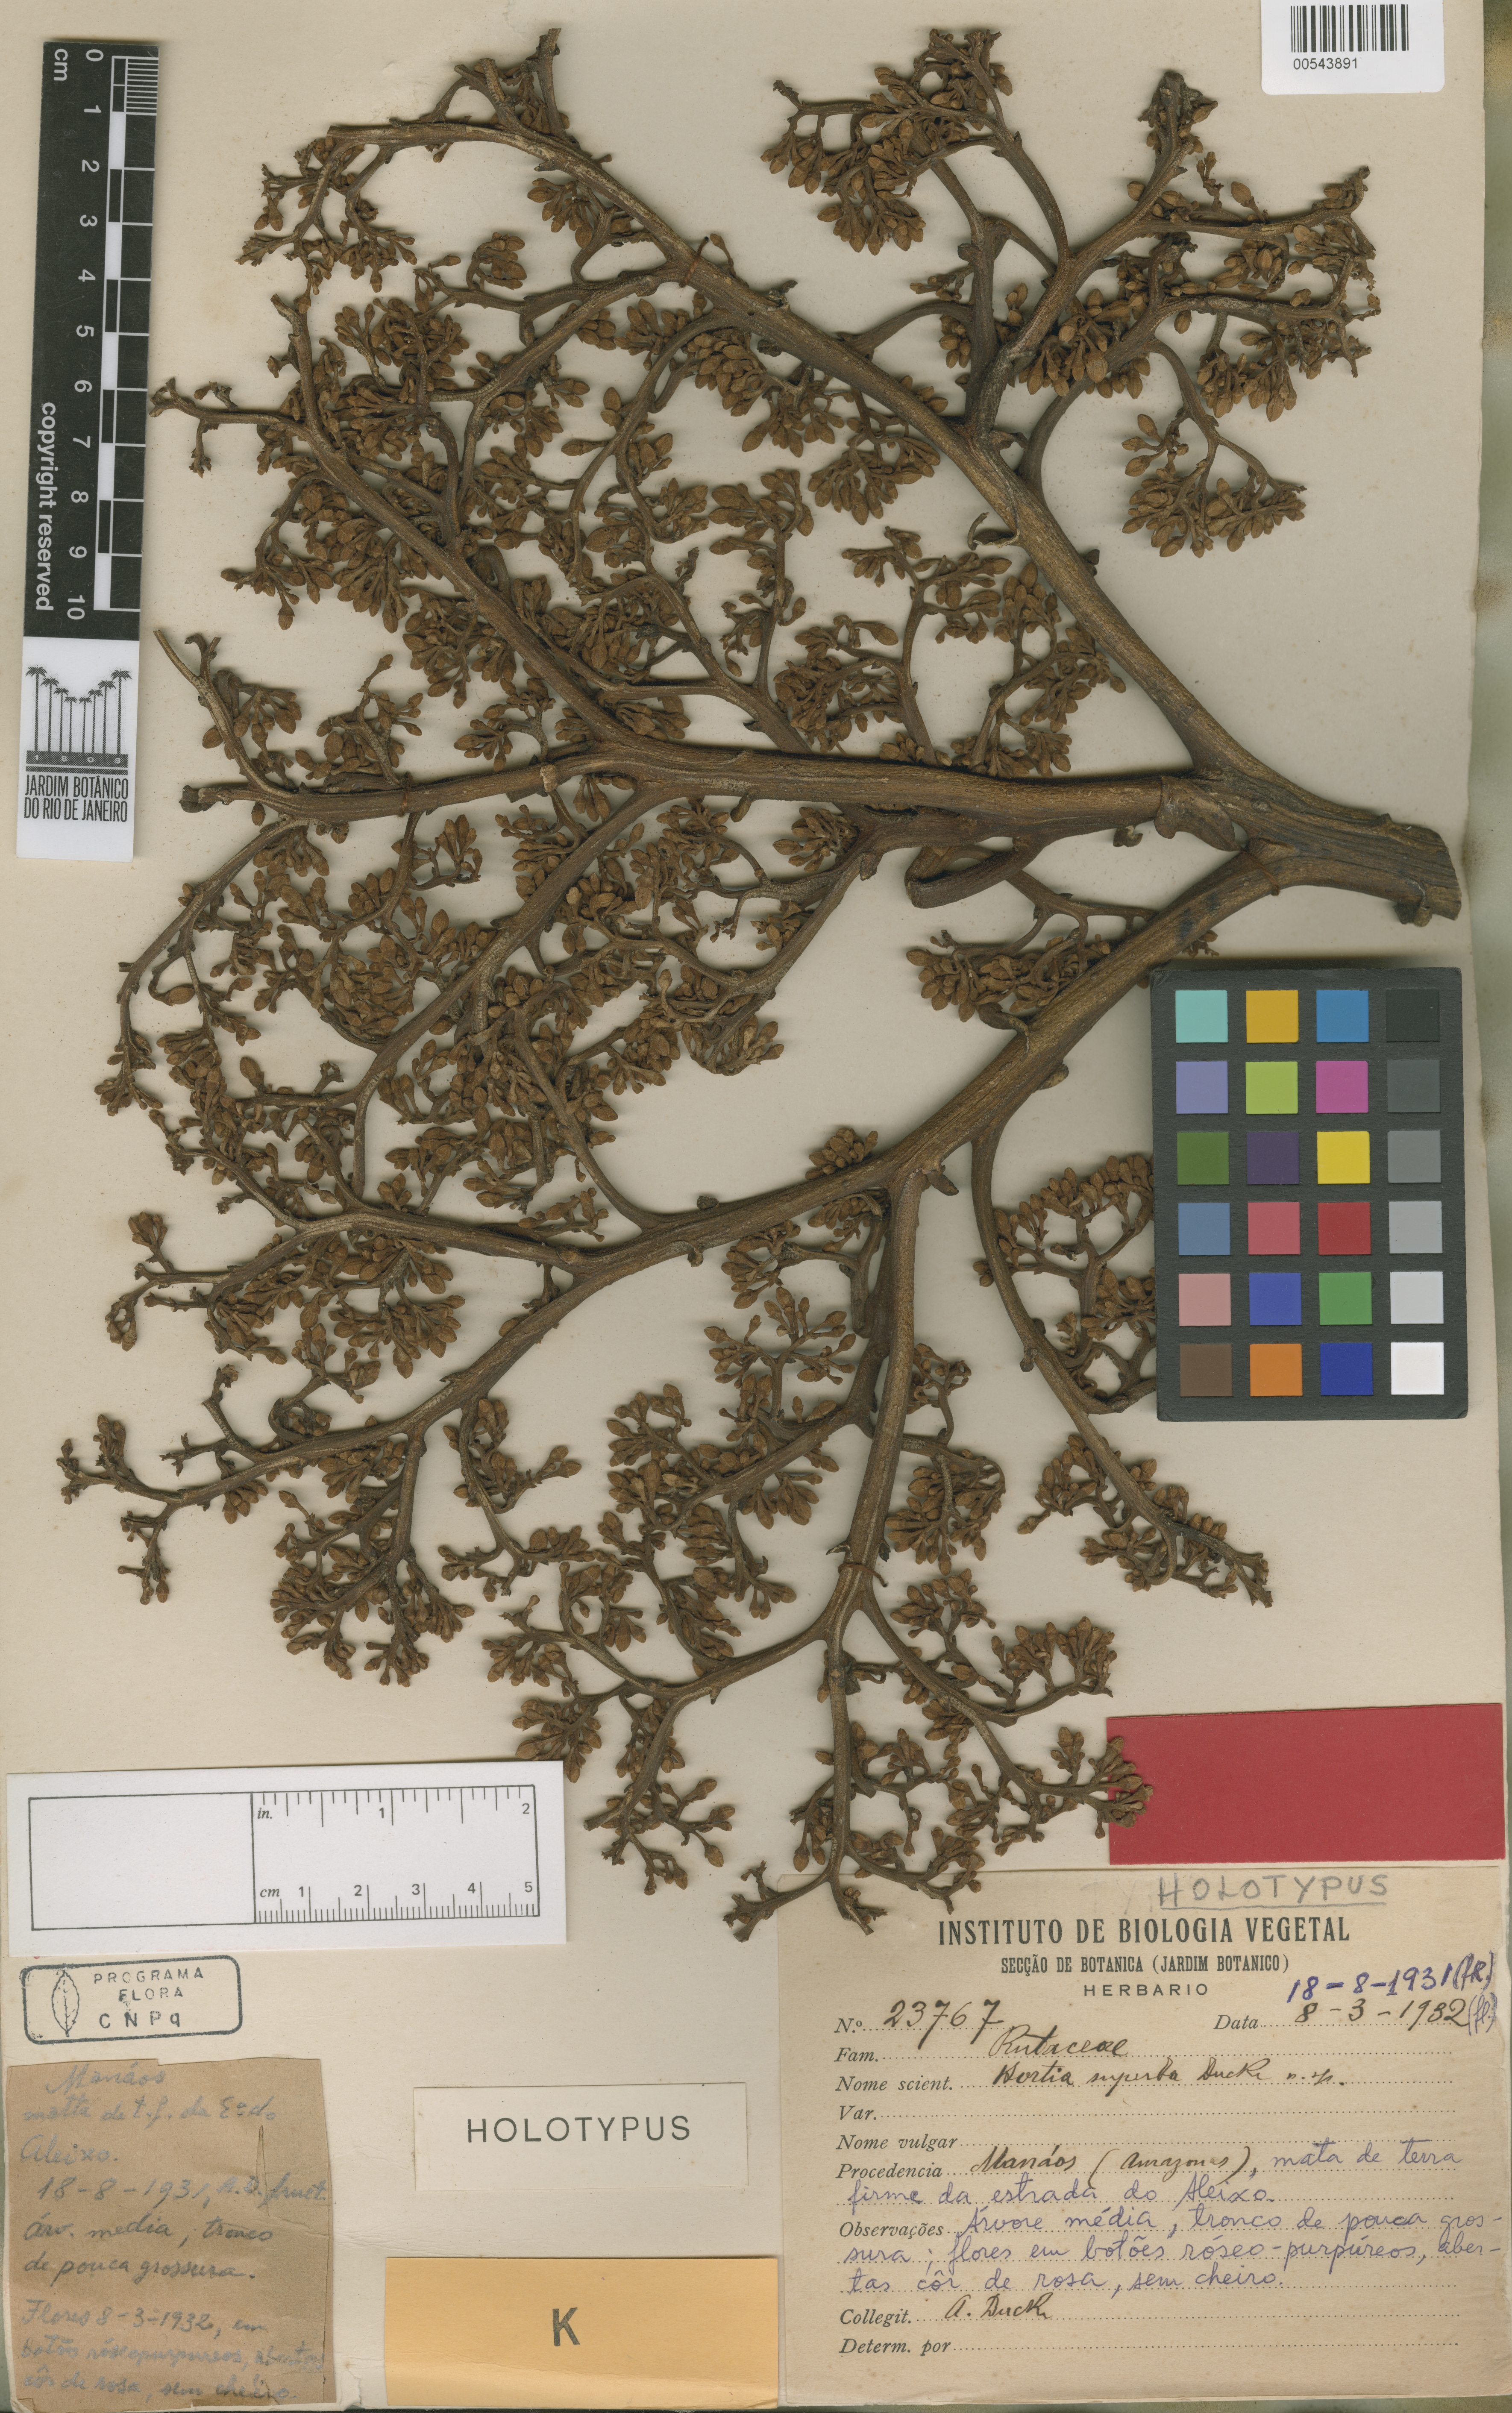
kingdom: Plantae
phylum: Tracheophyta
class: Magnoliopsida
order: Sapindales
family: Rutaceae
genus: Hortia
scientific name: Hortia superba
